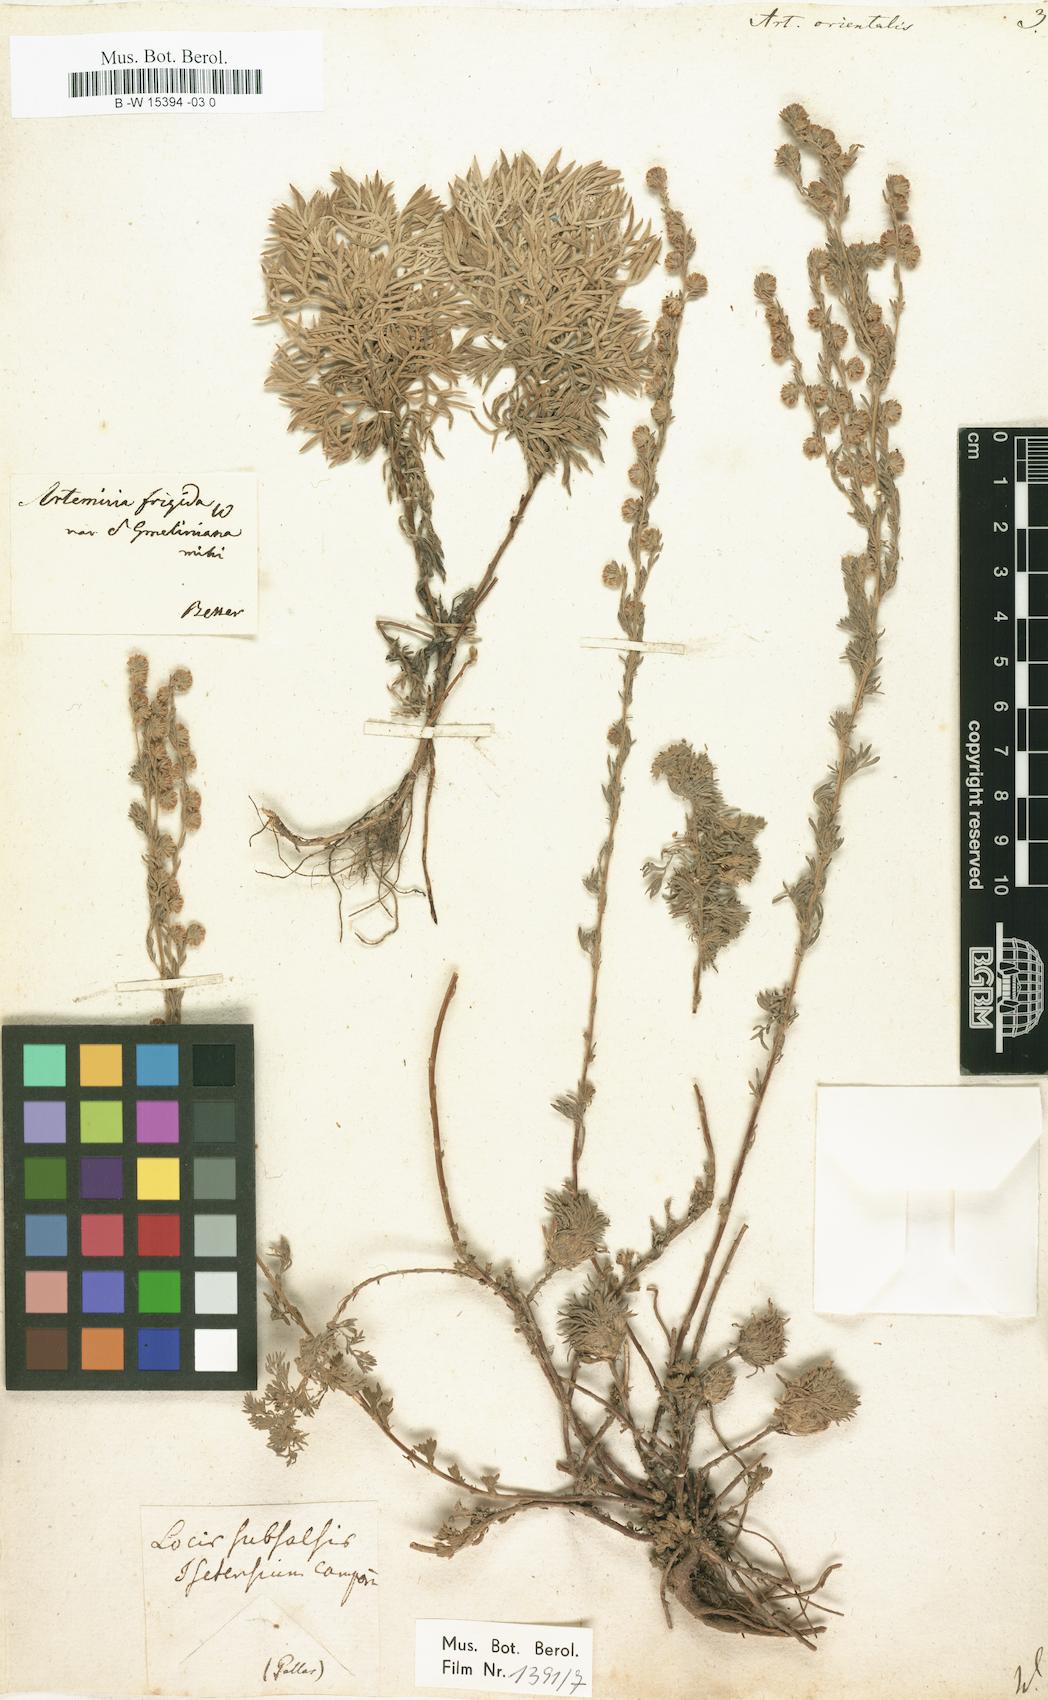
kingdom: Plantae
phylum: Tracheophyta
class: Magnoliopsida
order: Asterales
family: Asteraceae
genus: Artemisia
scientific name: Artemisia austriaca
